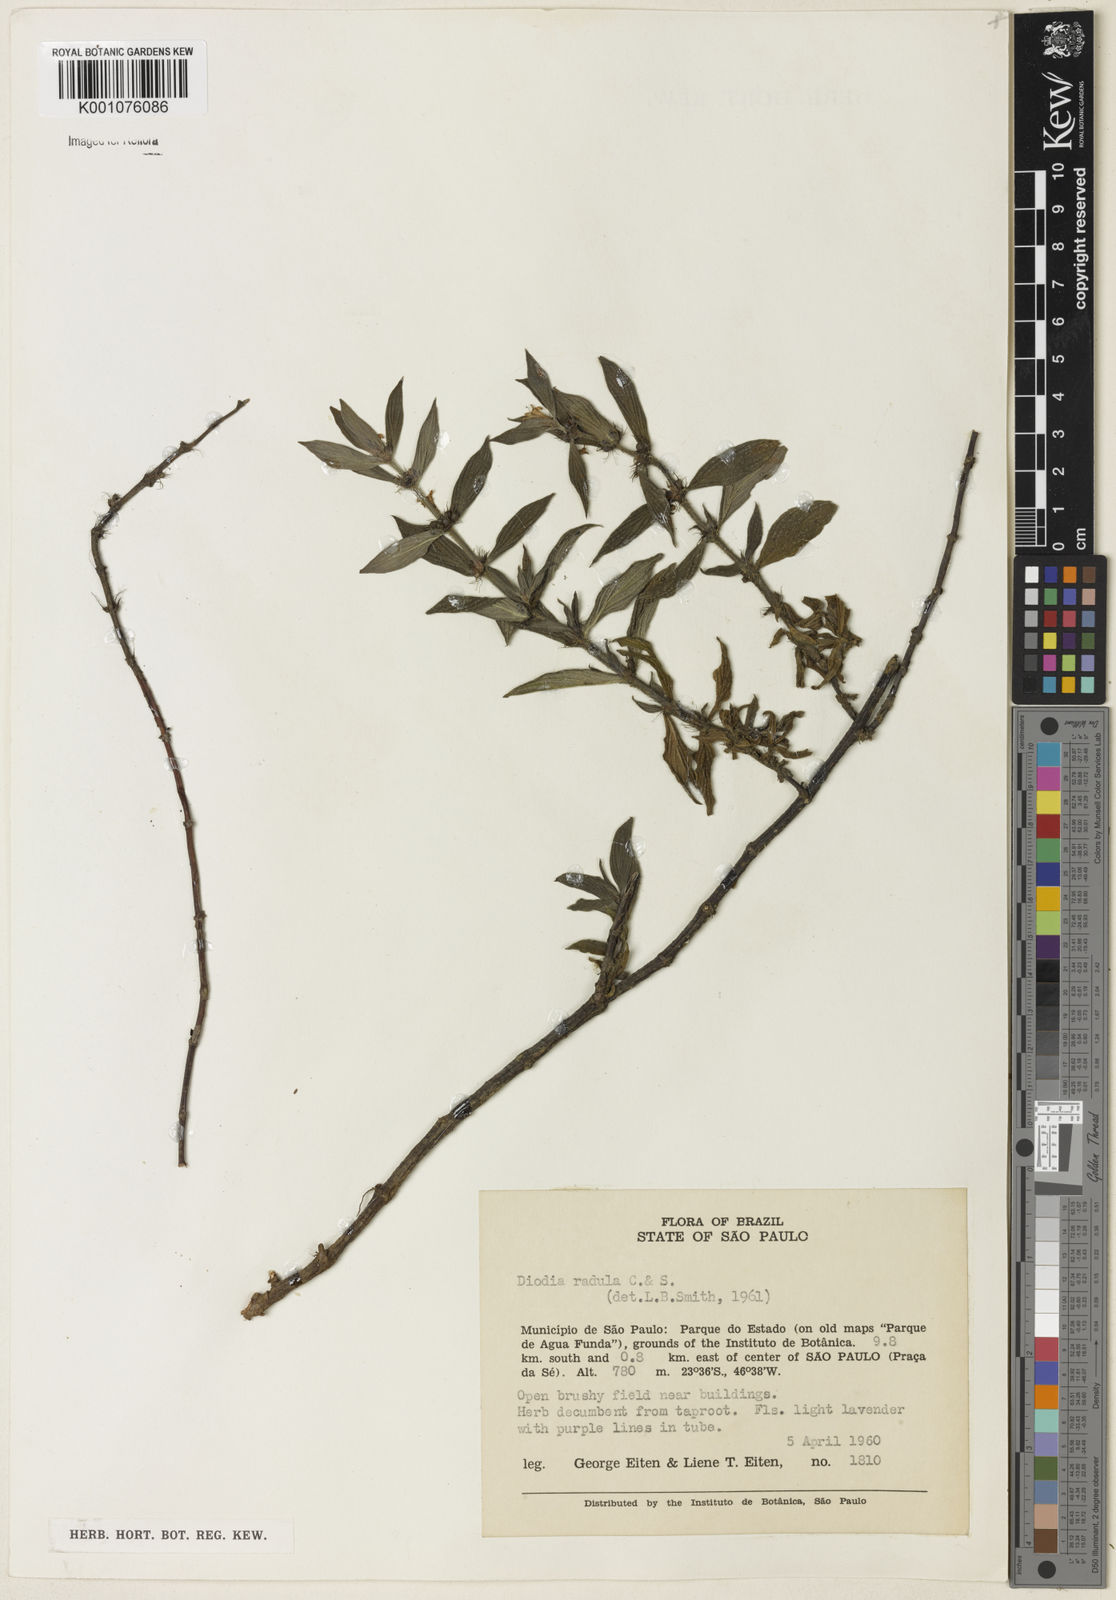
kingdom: Plantae
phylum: Tracheophyta
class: Magnoliopsida
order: Gentianales
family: Rubiaceae
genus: Hexasepalum
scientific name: Hexasepalum radulum
